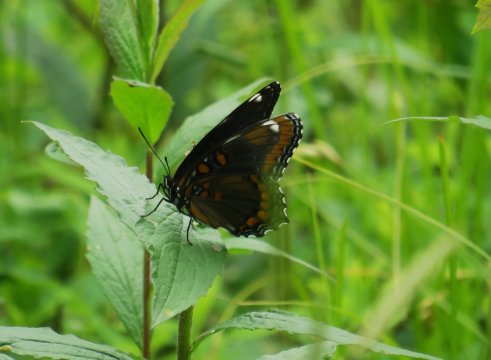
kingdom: Animalia
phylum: Arthropoda
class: Insecta
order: Lepidoptera
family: Nymphalidae
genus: Limenitis
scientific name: Limenitis arthemis
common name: Red-spotted Admiral
